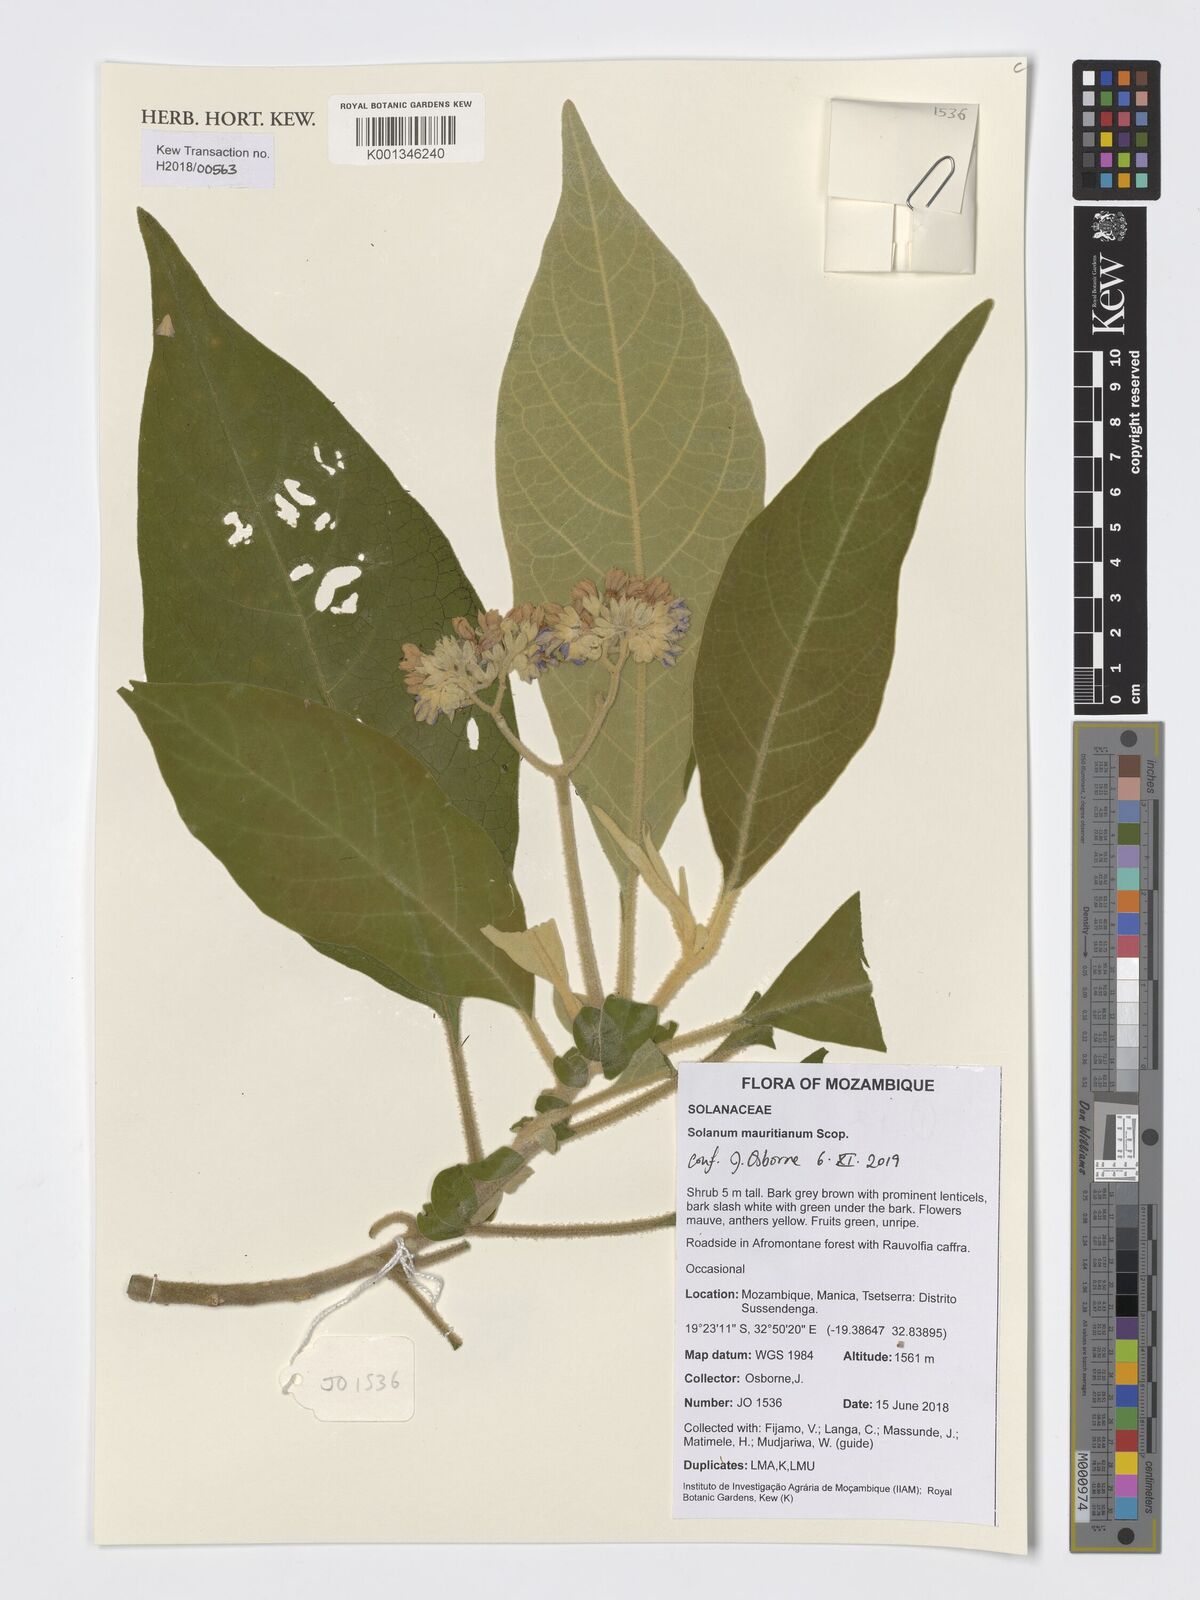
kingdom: Plantae
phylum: Tracheophyta
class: Magnoliopsida
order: Solanales
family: Solanaceae
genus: Solanum
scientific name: Solanum mauritianum
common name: Earleaf nightshade
